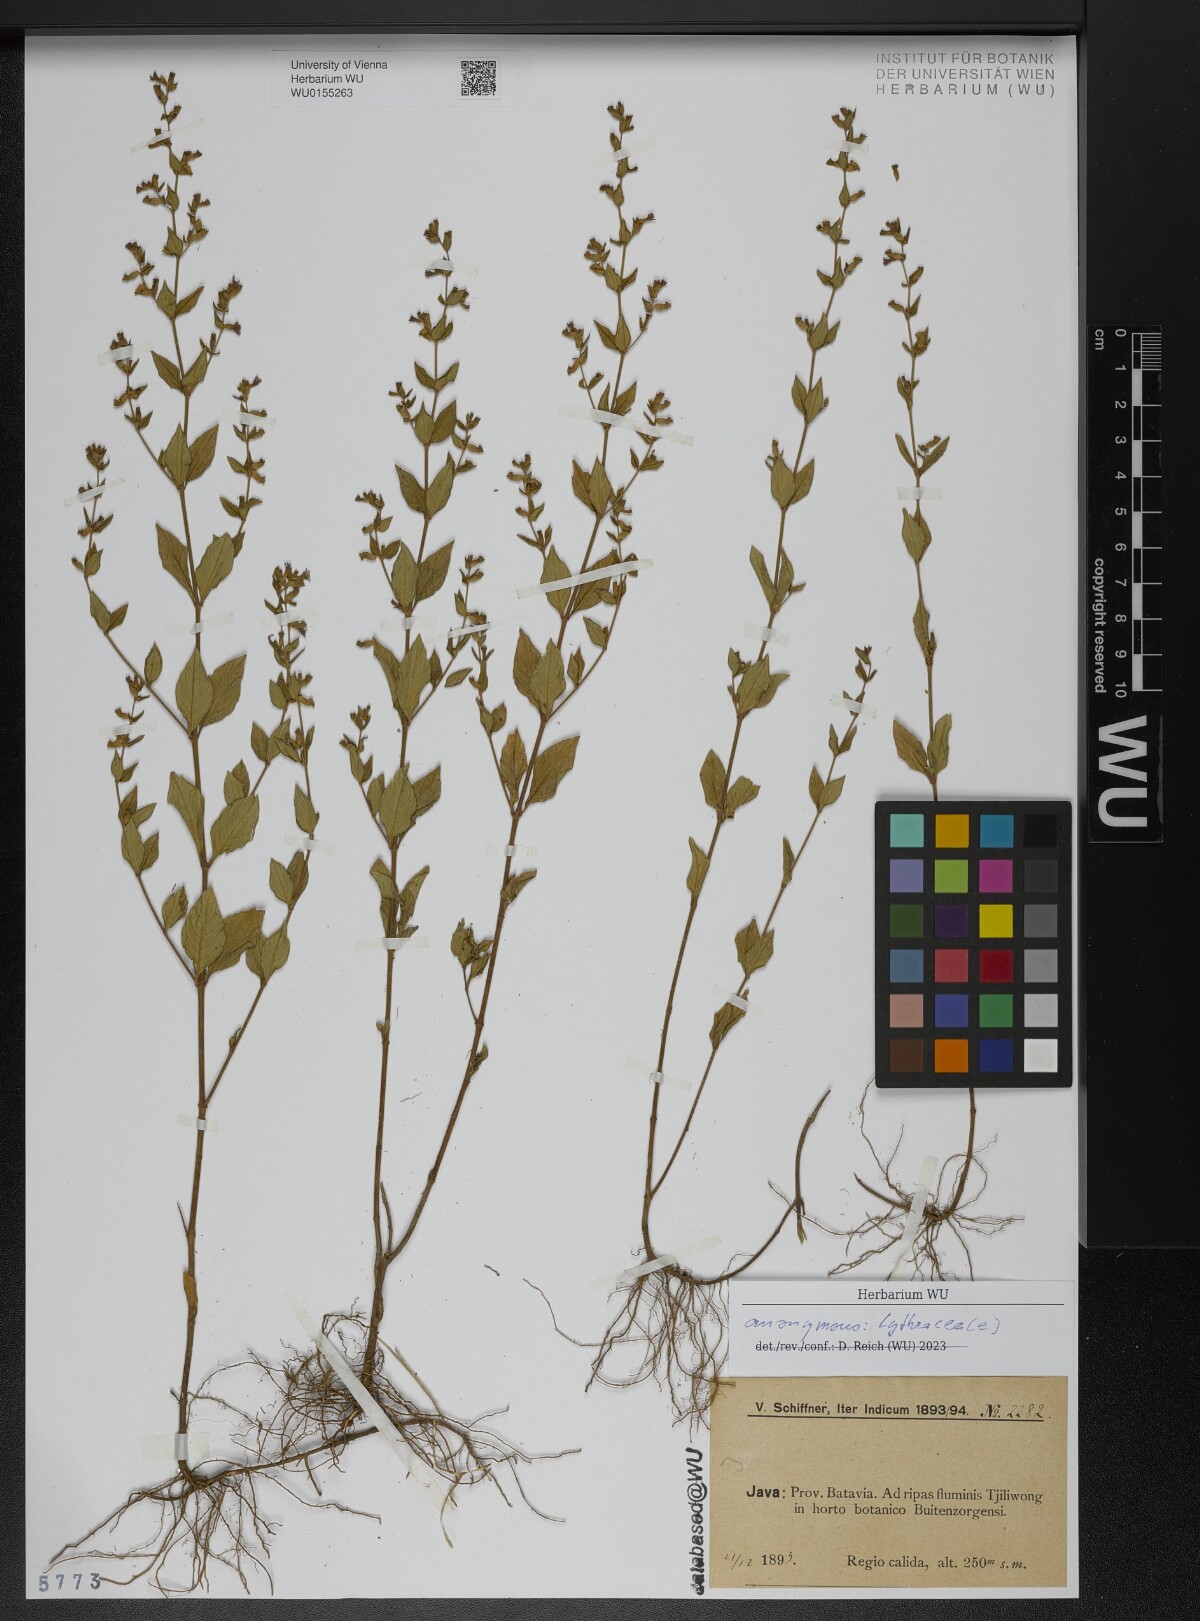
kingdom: Plantae
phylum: Tracheophyta
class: Magnoliopsida
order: Myrtales
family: Lythraceae
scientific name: Lythraceae
